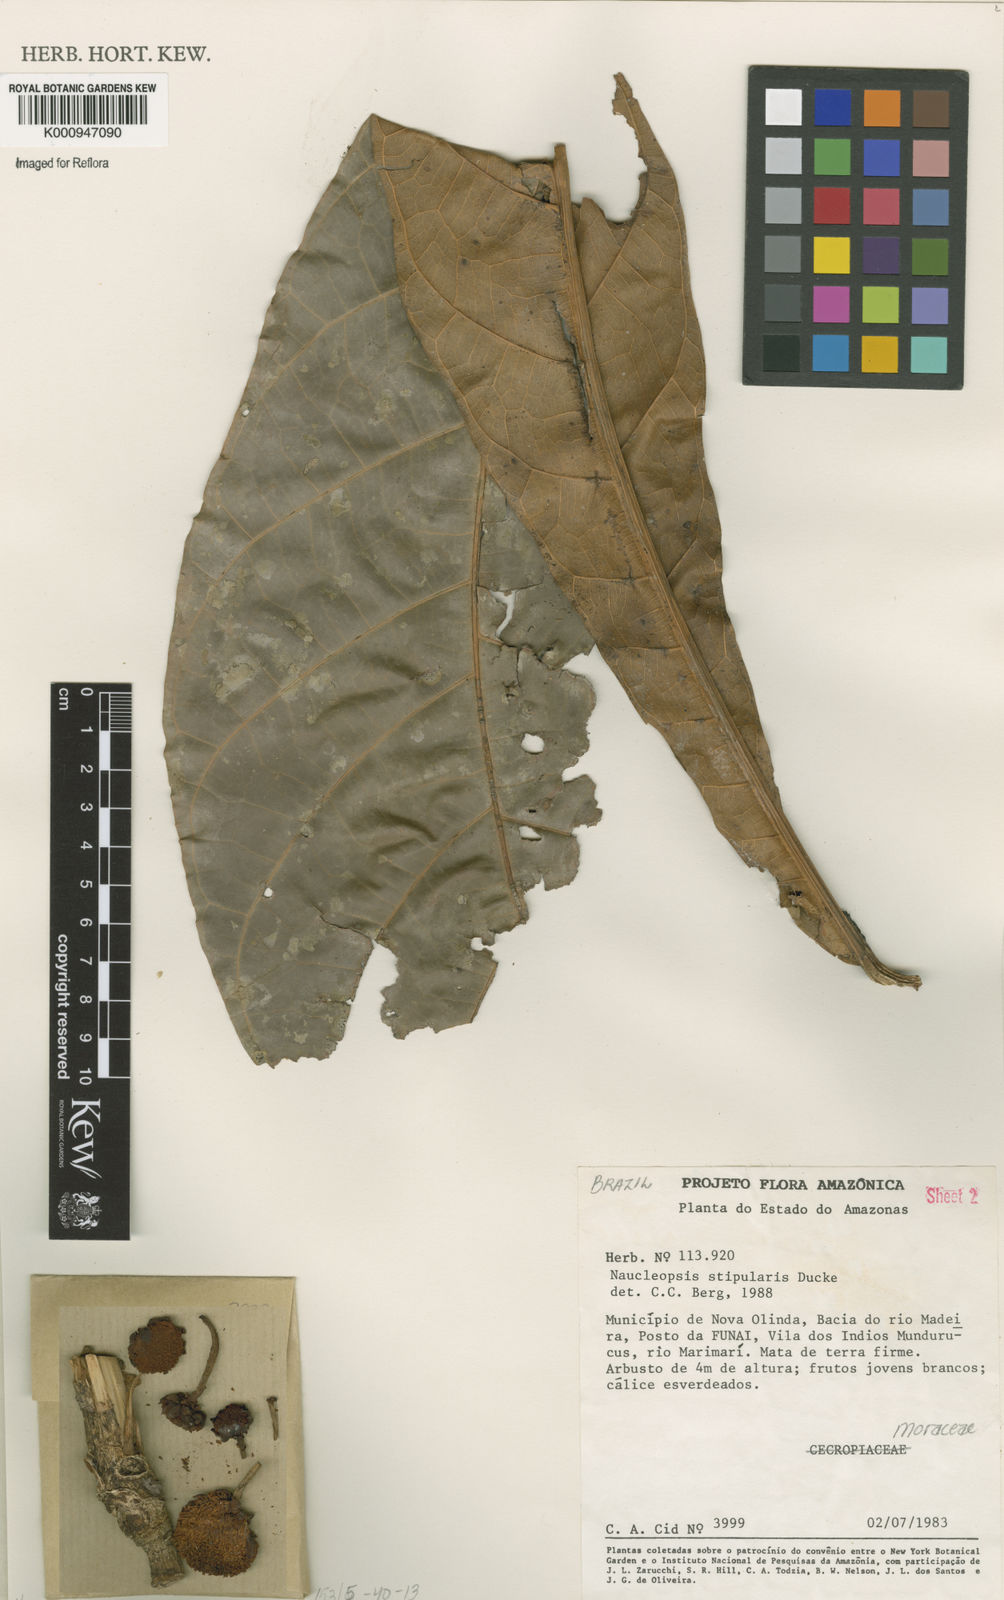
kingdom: Plantae
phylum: Tracheophyta
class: Magnoliopsida
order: Rosales
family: Moraceae
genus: Naucleopsis
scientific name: Naucleopsis stipularis
